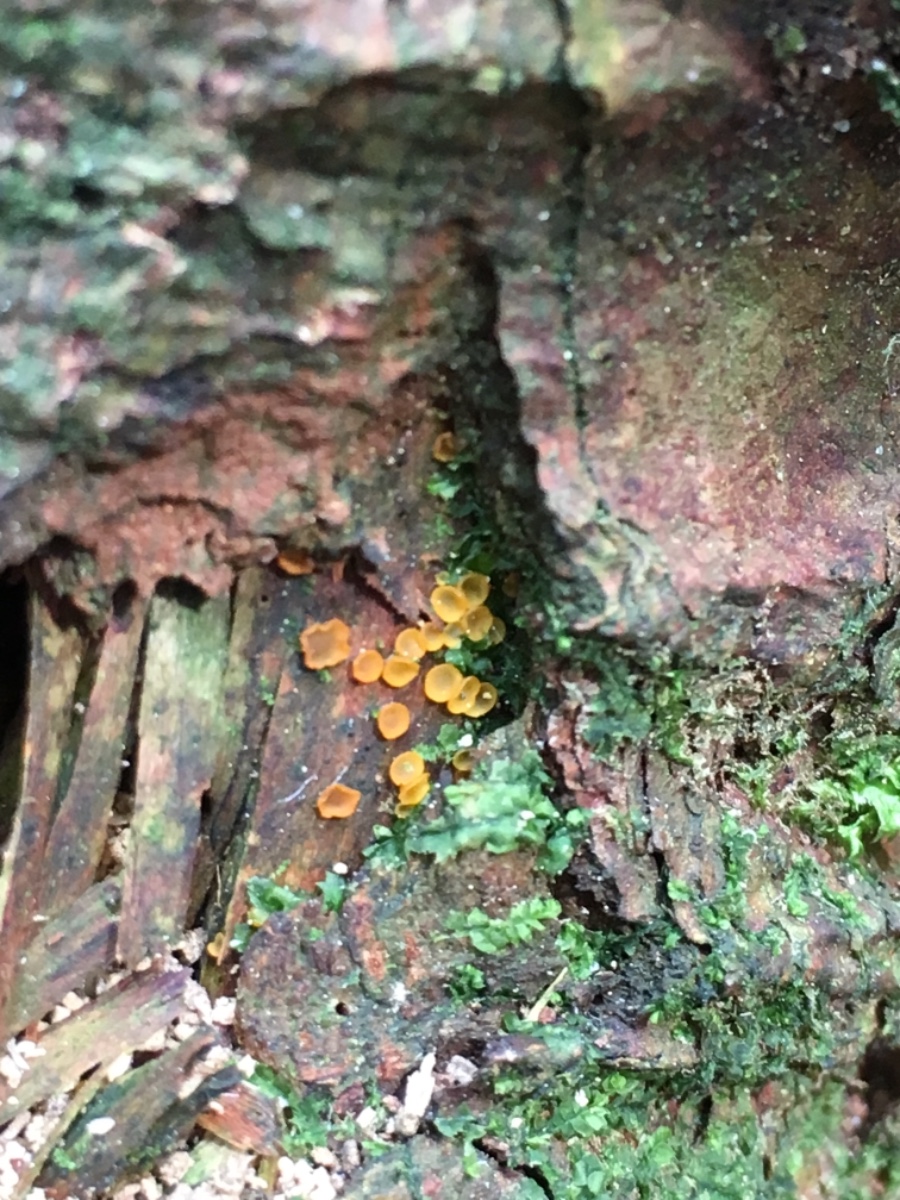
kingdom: Fungi
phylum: Ascomycota
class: Orbiliomycetes
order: Orbiliales
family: Orbiliaceae
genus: Orbilia
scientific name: Orbilia
